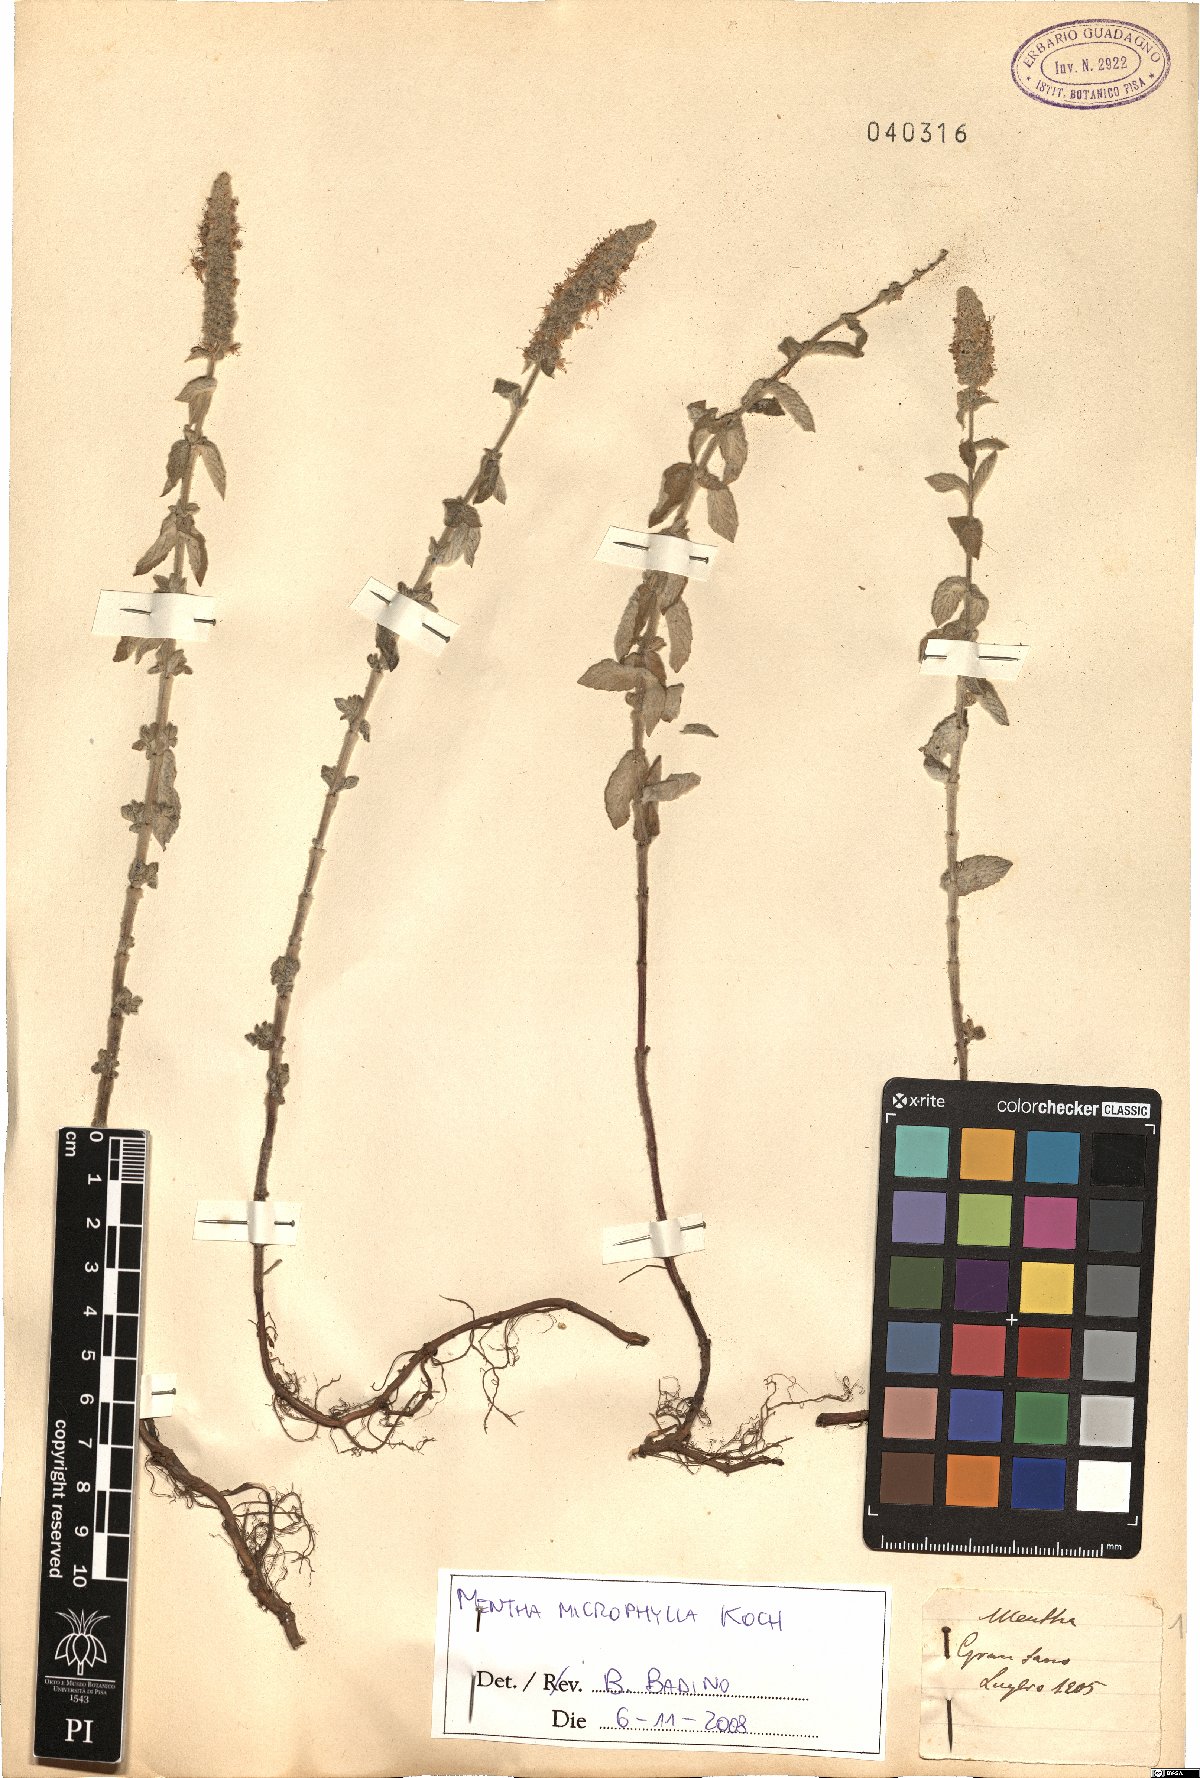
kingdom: Plantae
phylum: Tracheophyta
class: Magnoliopsida
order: Lamiales
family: Lamiaceae
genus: Mentha
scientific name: Mentha spicata
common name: Spearmint
